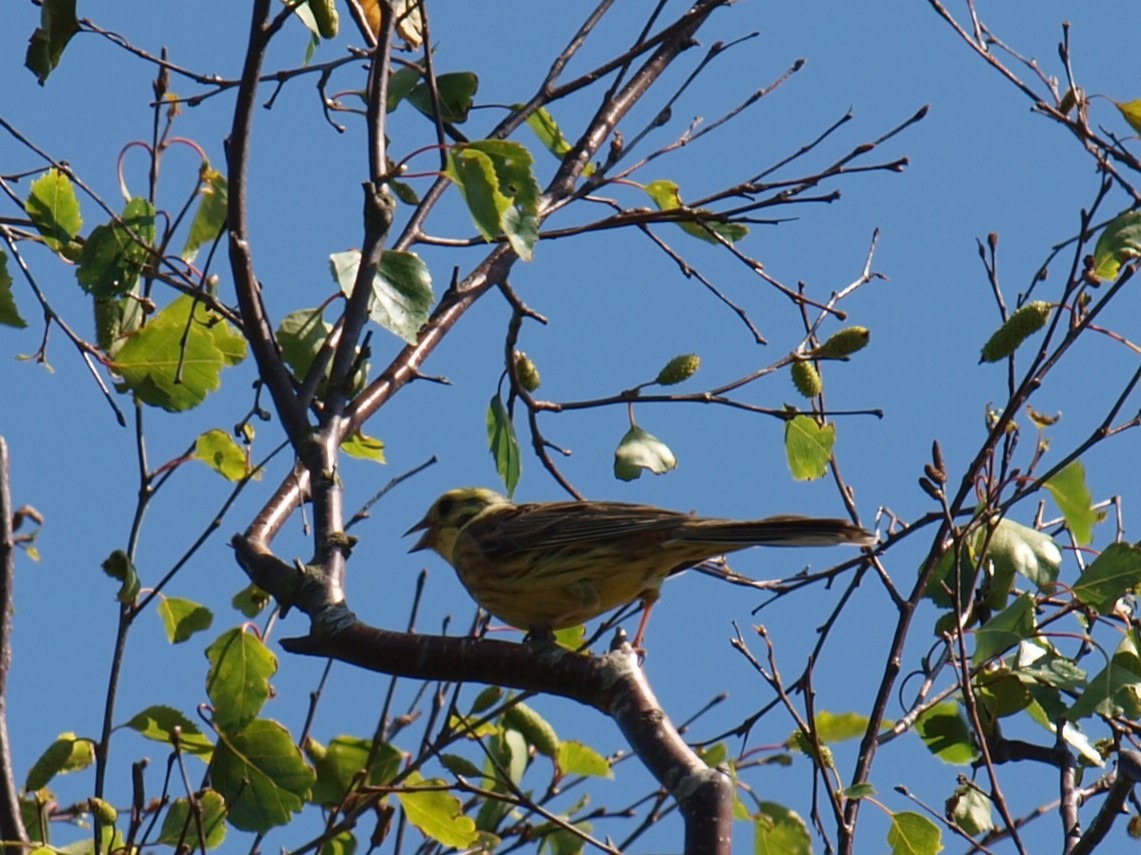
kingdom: Animalia
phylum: Chordata
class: Aves
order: Passeriformes
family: Emberizidae
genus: Emberiza
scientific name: Emberiza citrinella
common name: Gulspurv
